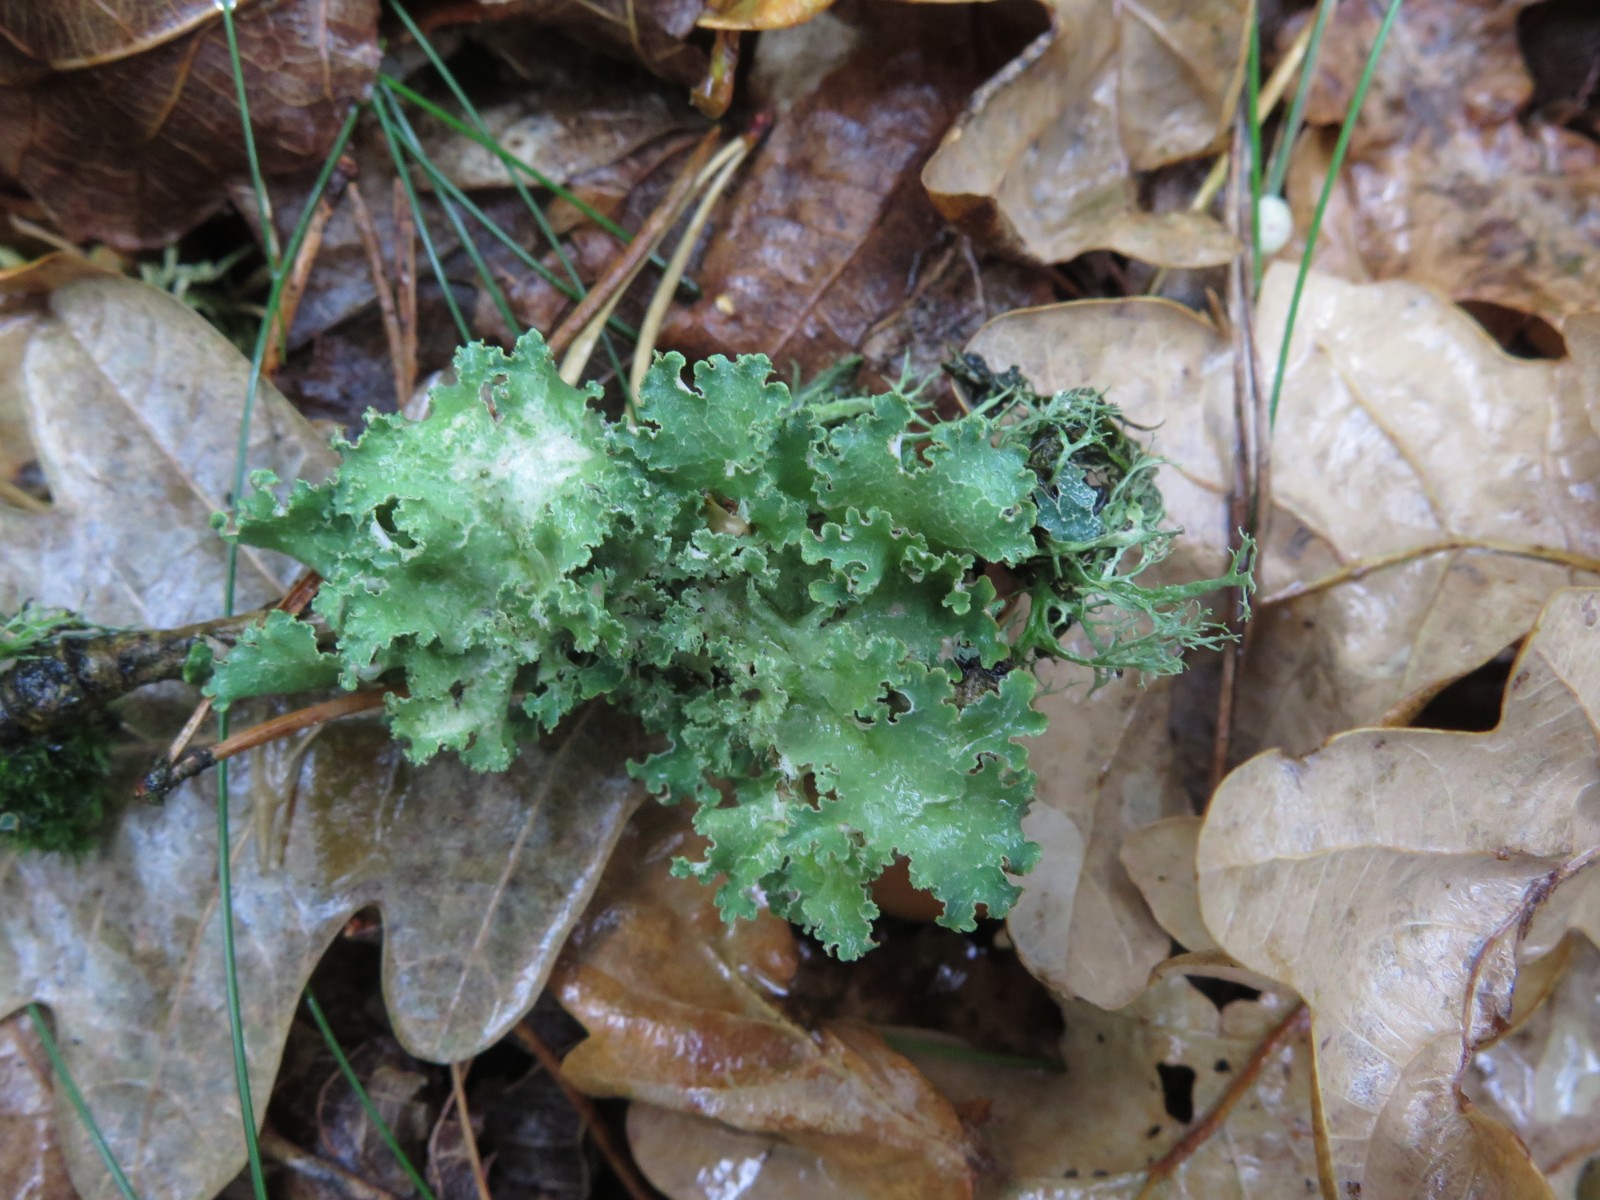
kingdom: Fungi
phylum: Ascomycota
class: Lecanoromycetes
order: Lecanorales
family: Parmeliaceae
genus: Platismatia
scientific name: Platismatia glauca
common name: blågrå papirlav
